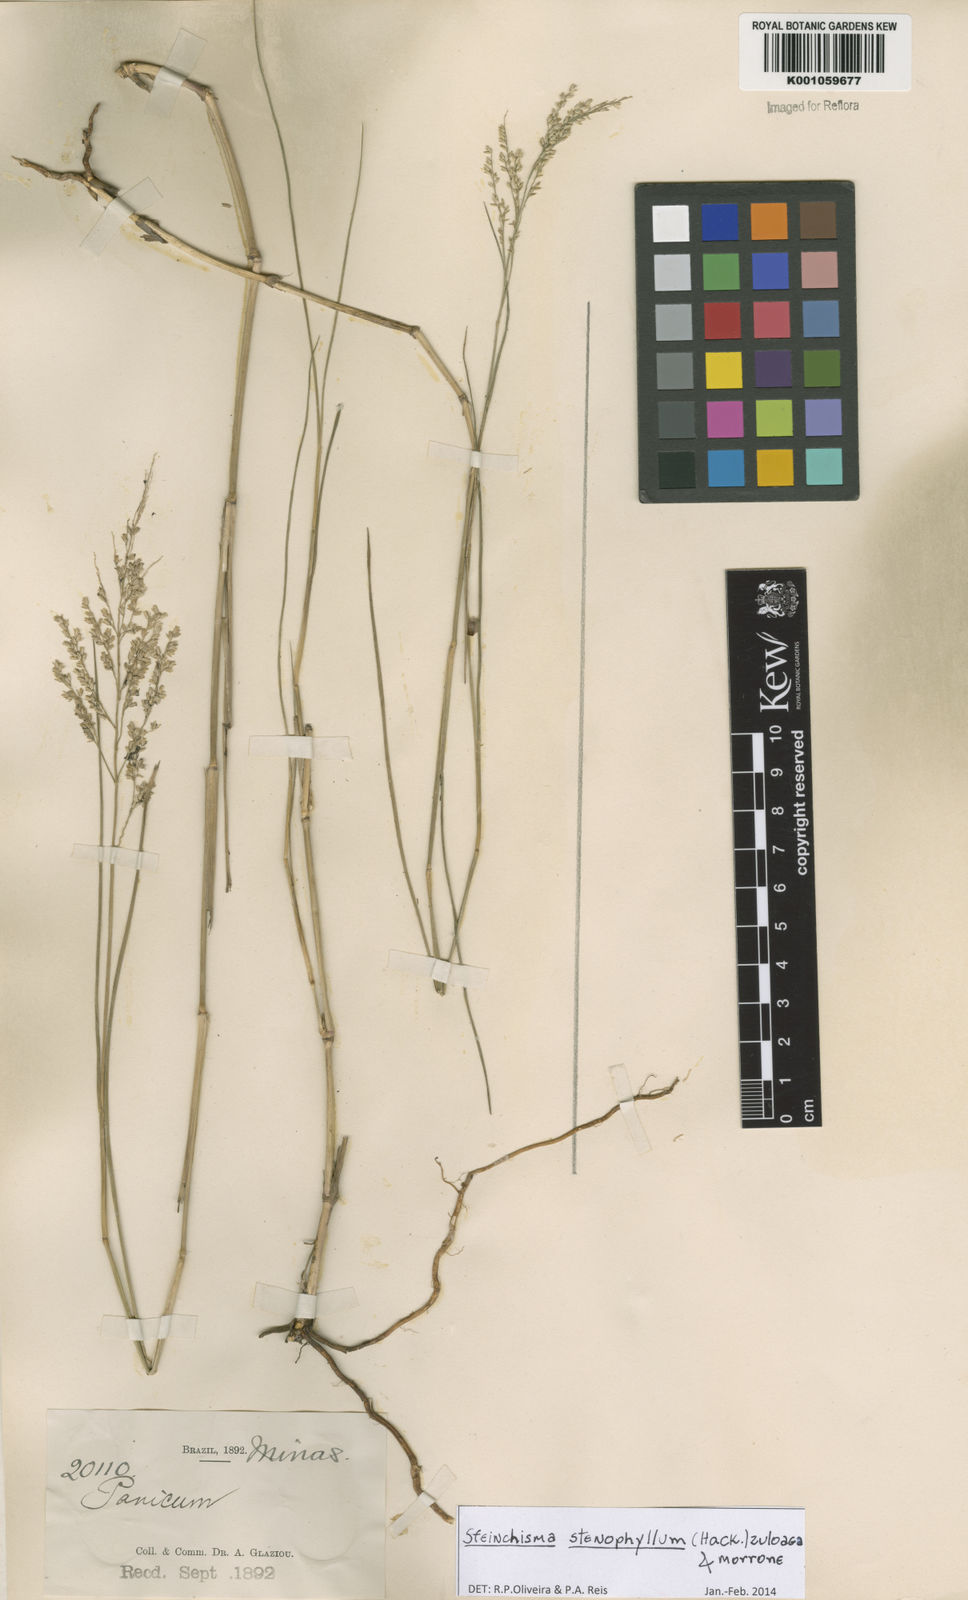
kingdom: Plantae
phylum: Tracheophyta
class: Liliopsida
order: Poales
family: Poaceae
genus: Steinchisma
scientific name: Steinchisma stenophyllum
